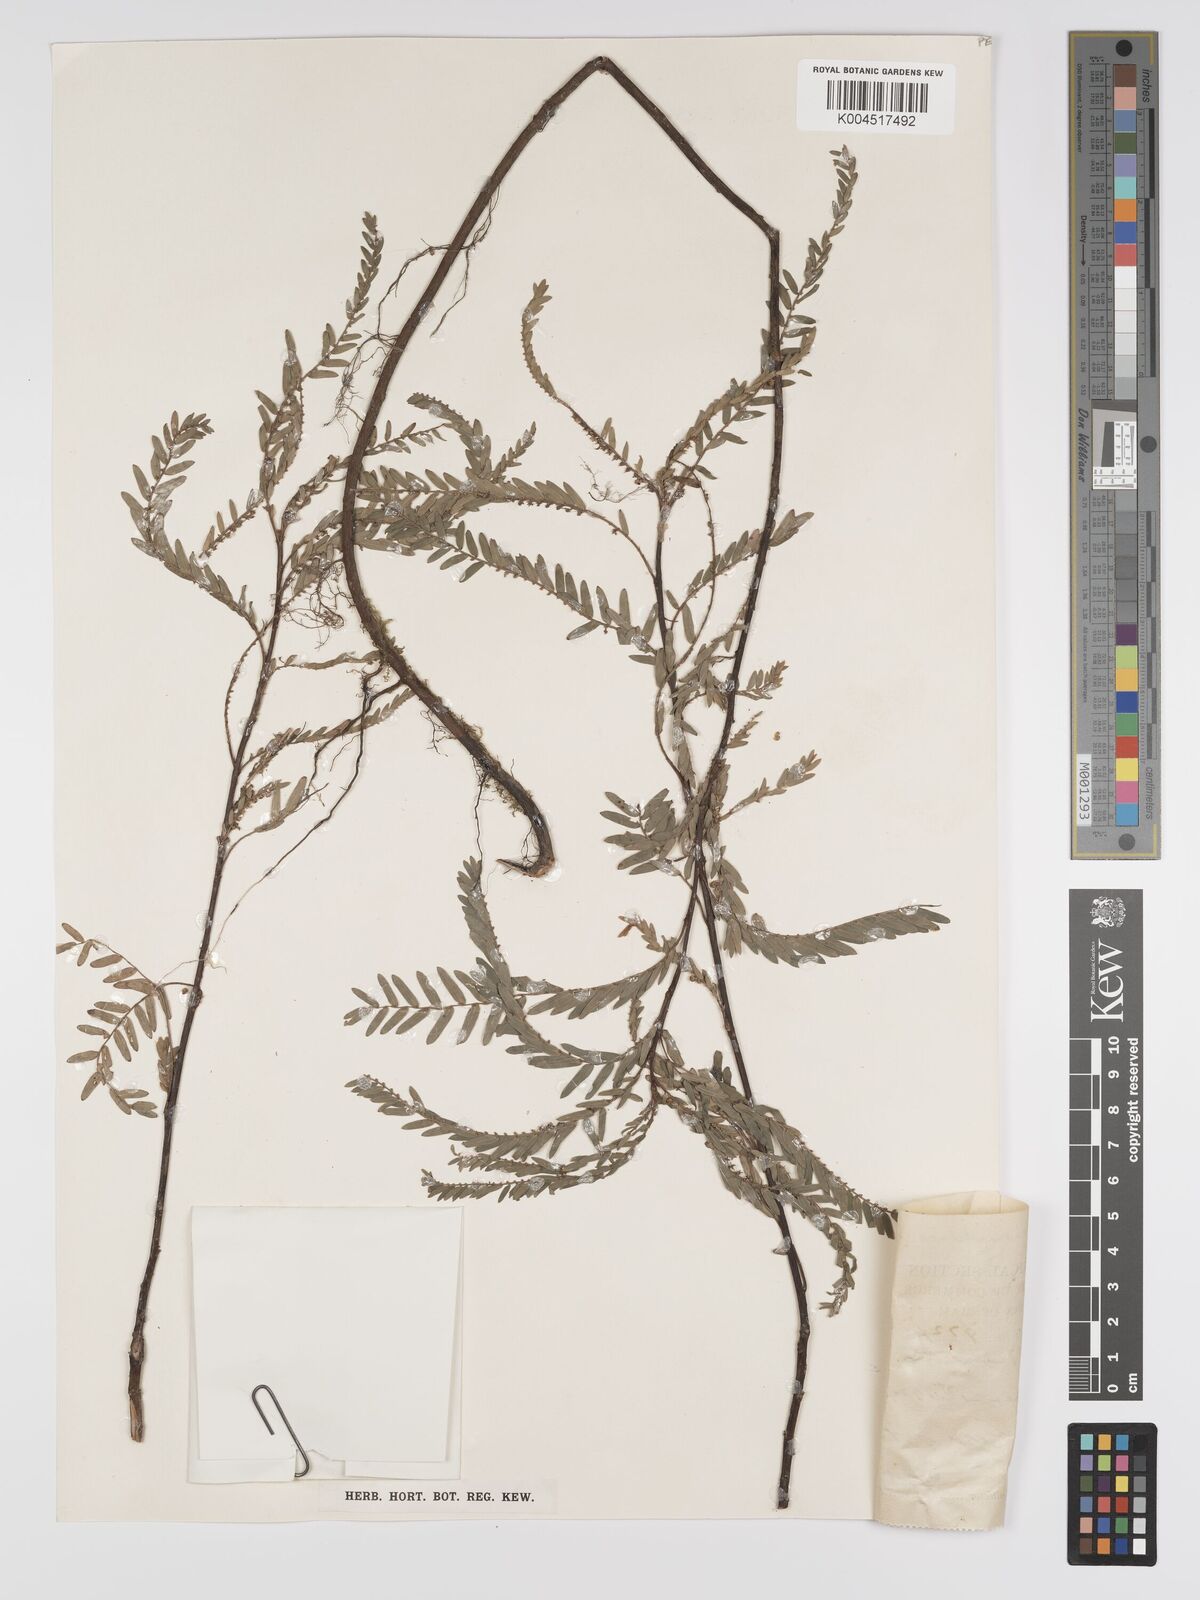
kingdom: Plantae
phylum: Tracheophyta
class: Magnoliopsida
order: Malpighiales
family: Phyllanthaceae
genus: Phyllanthus
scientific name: Phyllanthus chamaepeuce
